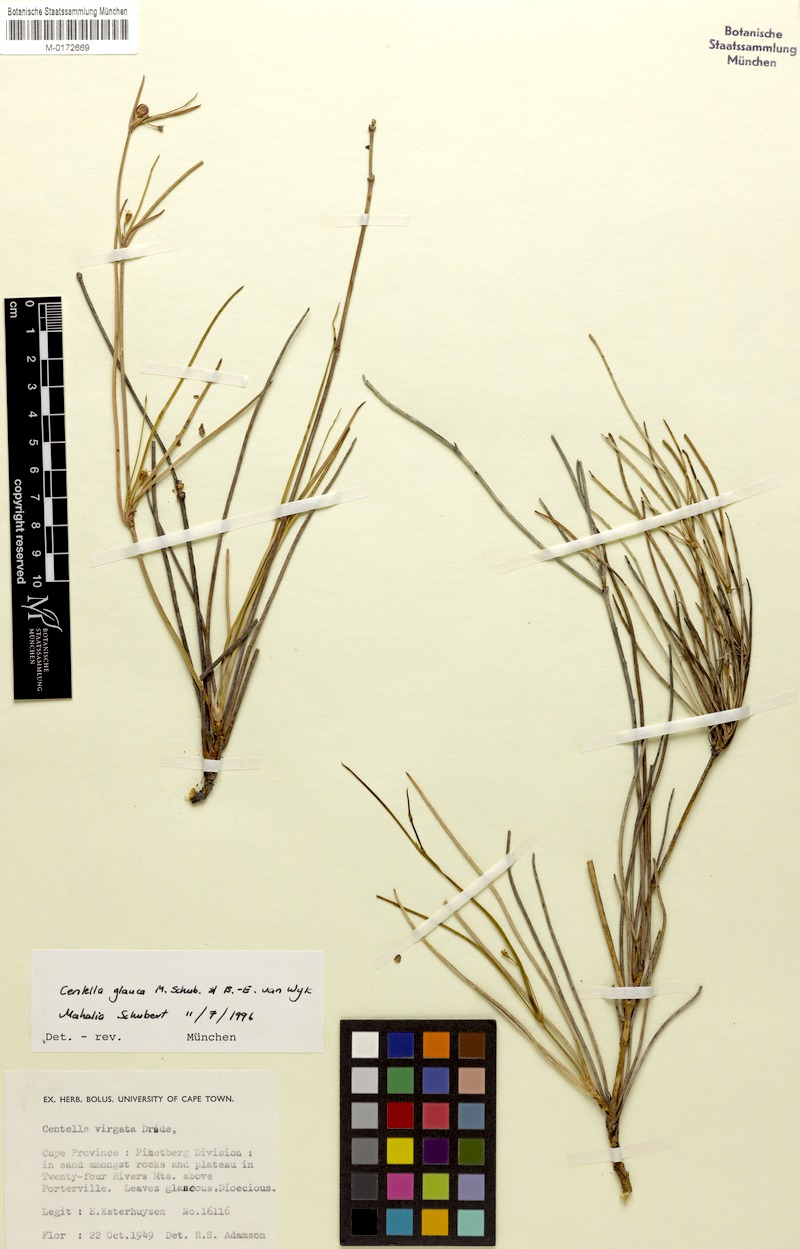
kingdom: Plantae
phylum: Tracheophyta
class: Magnoliopsida
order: Apiales
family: Apiaceae
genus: Centella
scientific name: Centella glauca
